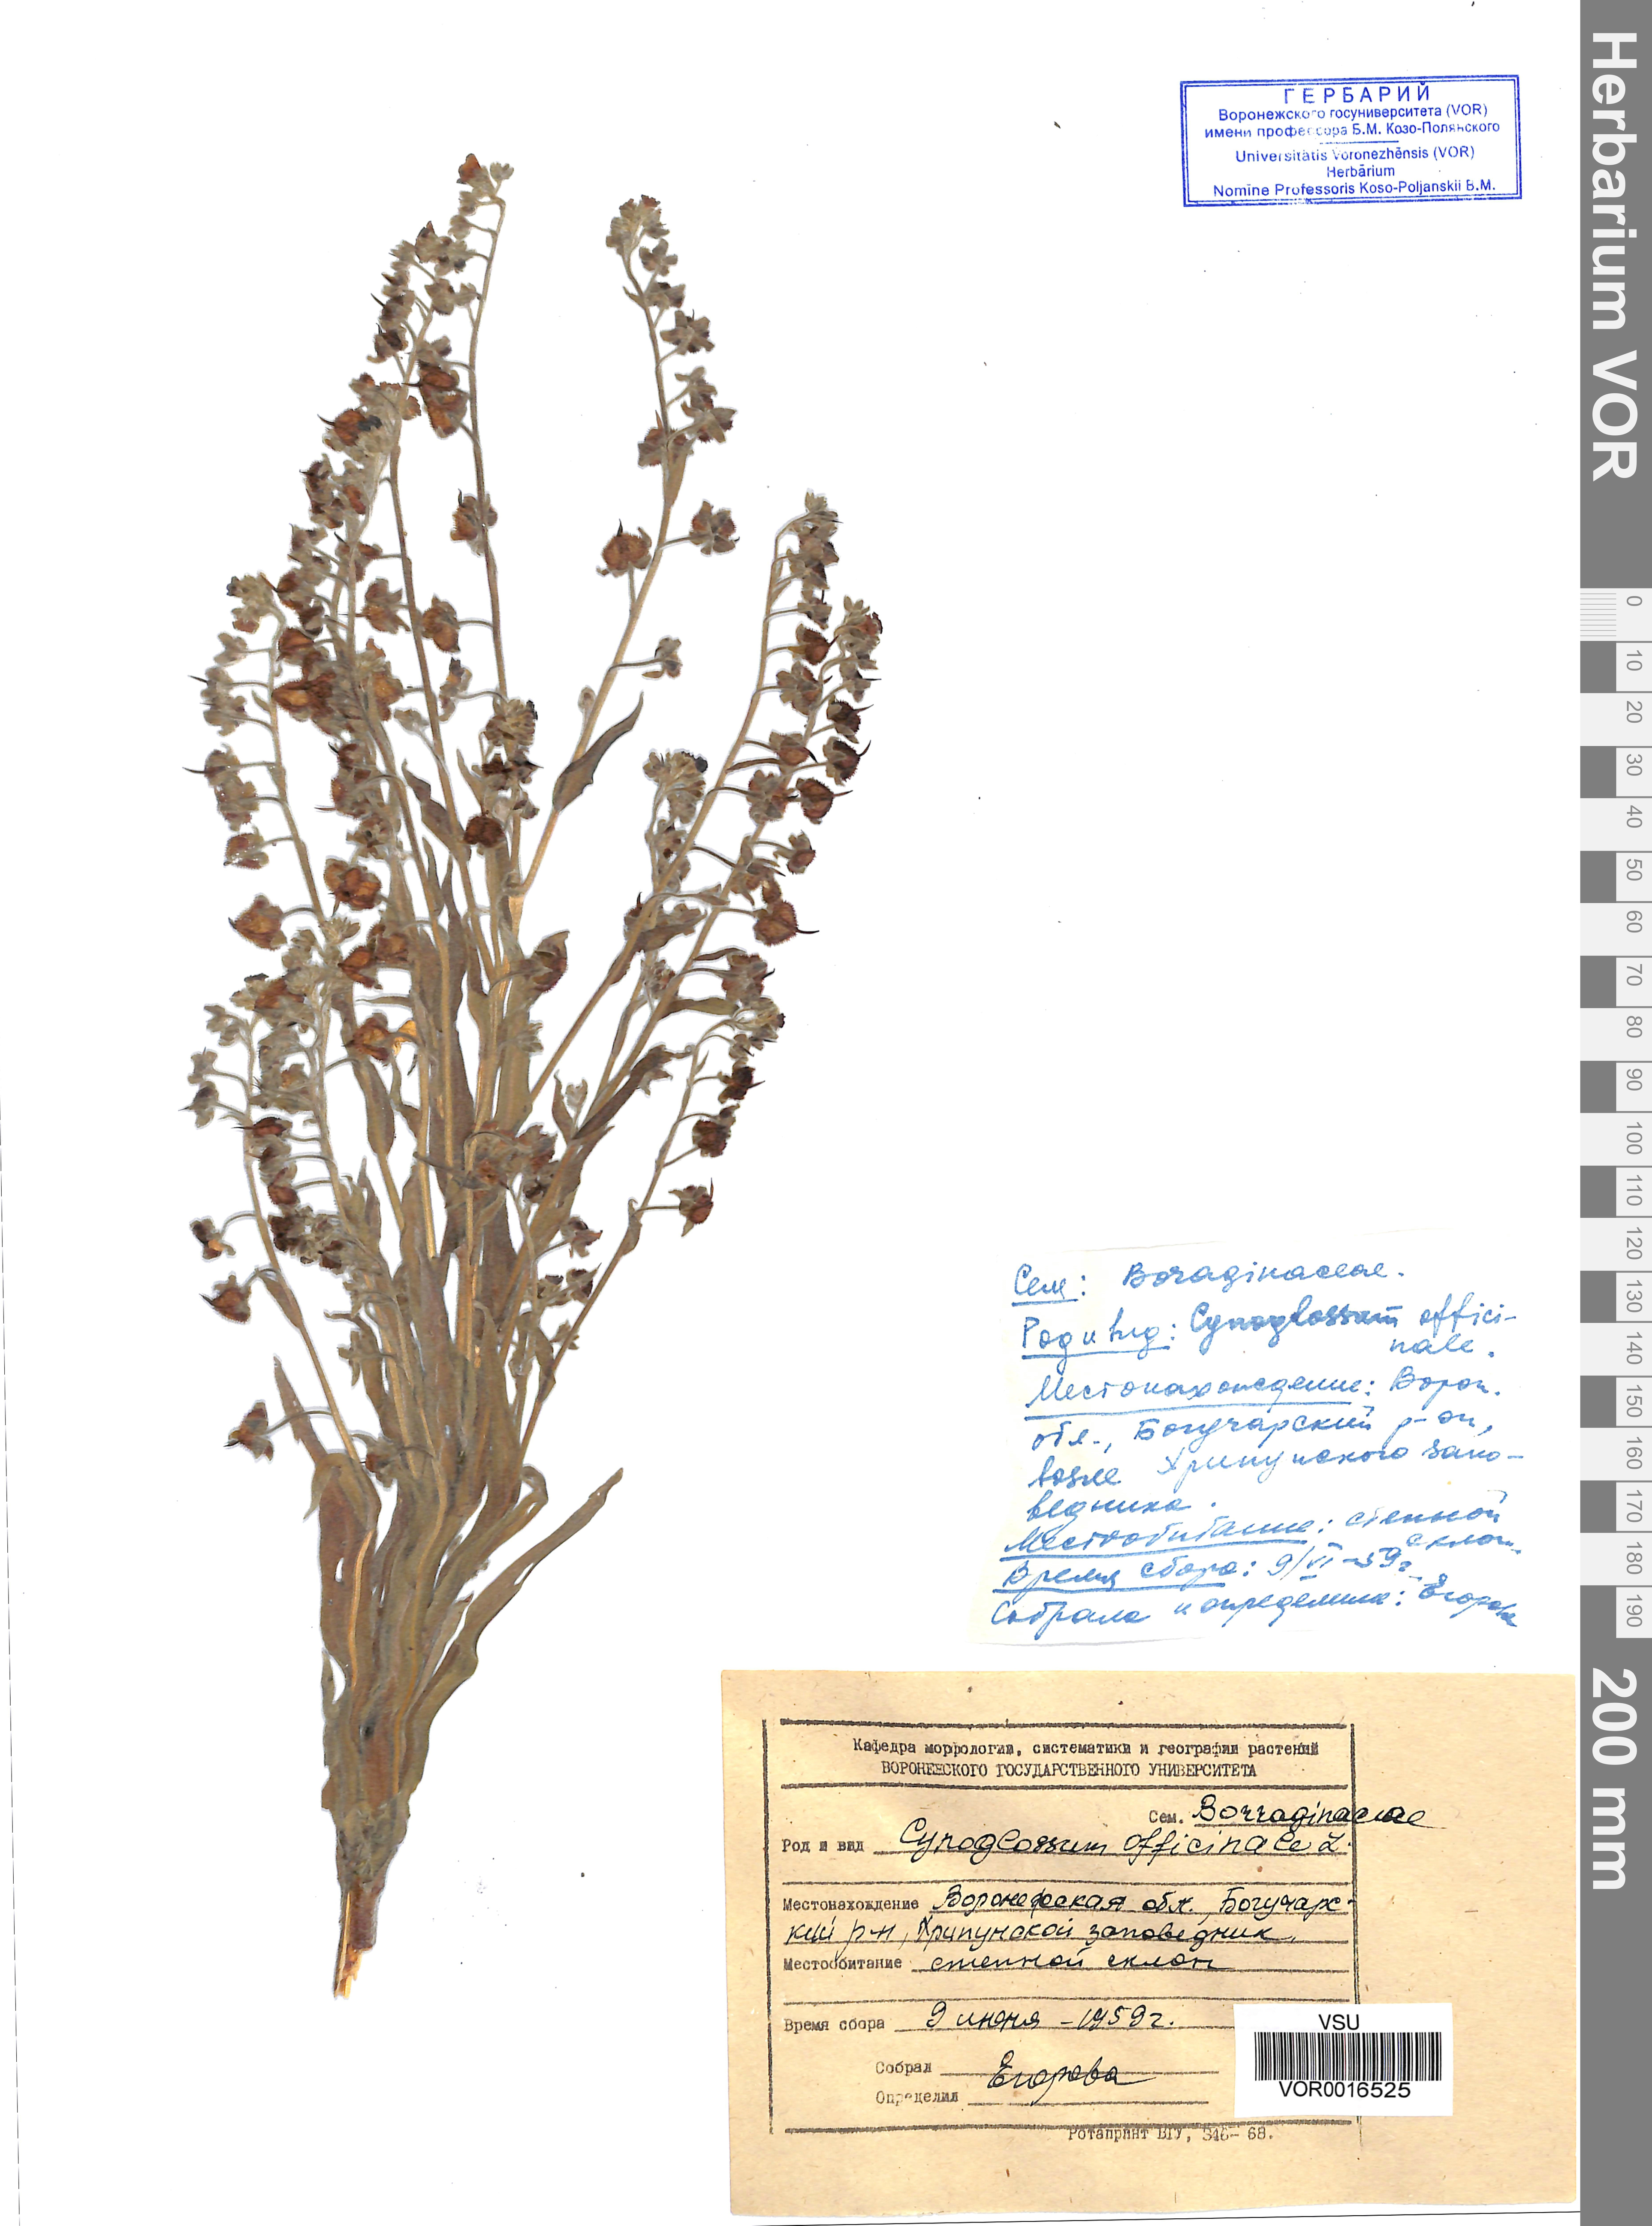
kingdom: Plantae
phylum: Tracheophyta
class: Magnoliopsida
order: Boraginales
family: Boraginaceae
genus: Cynoglossum
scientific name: Cynoglossum officinale
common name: Hound's-tongue
